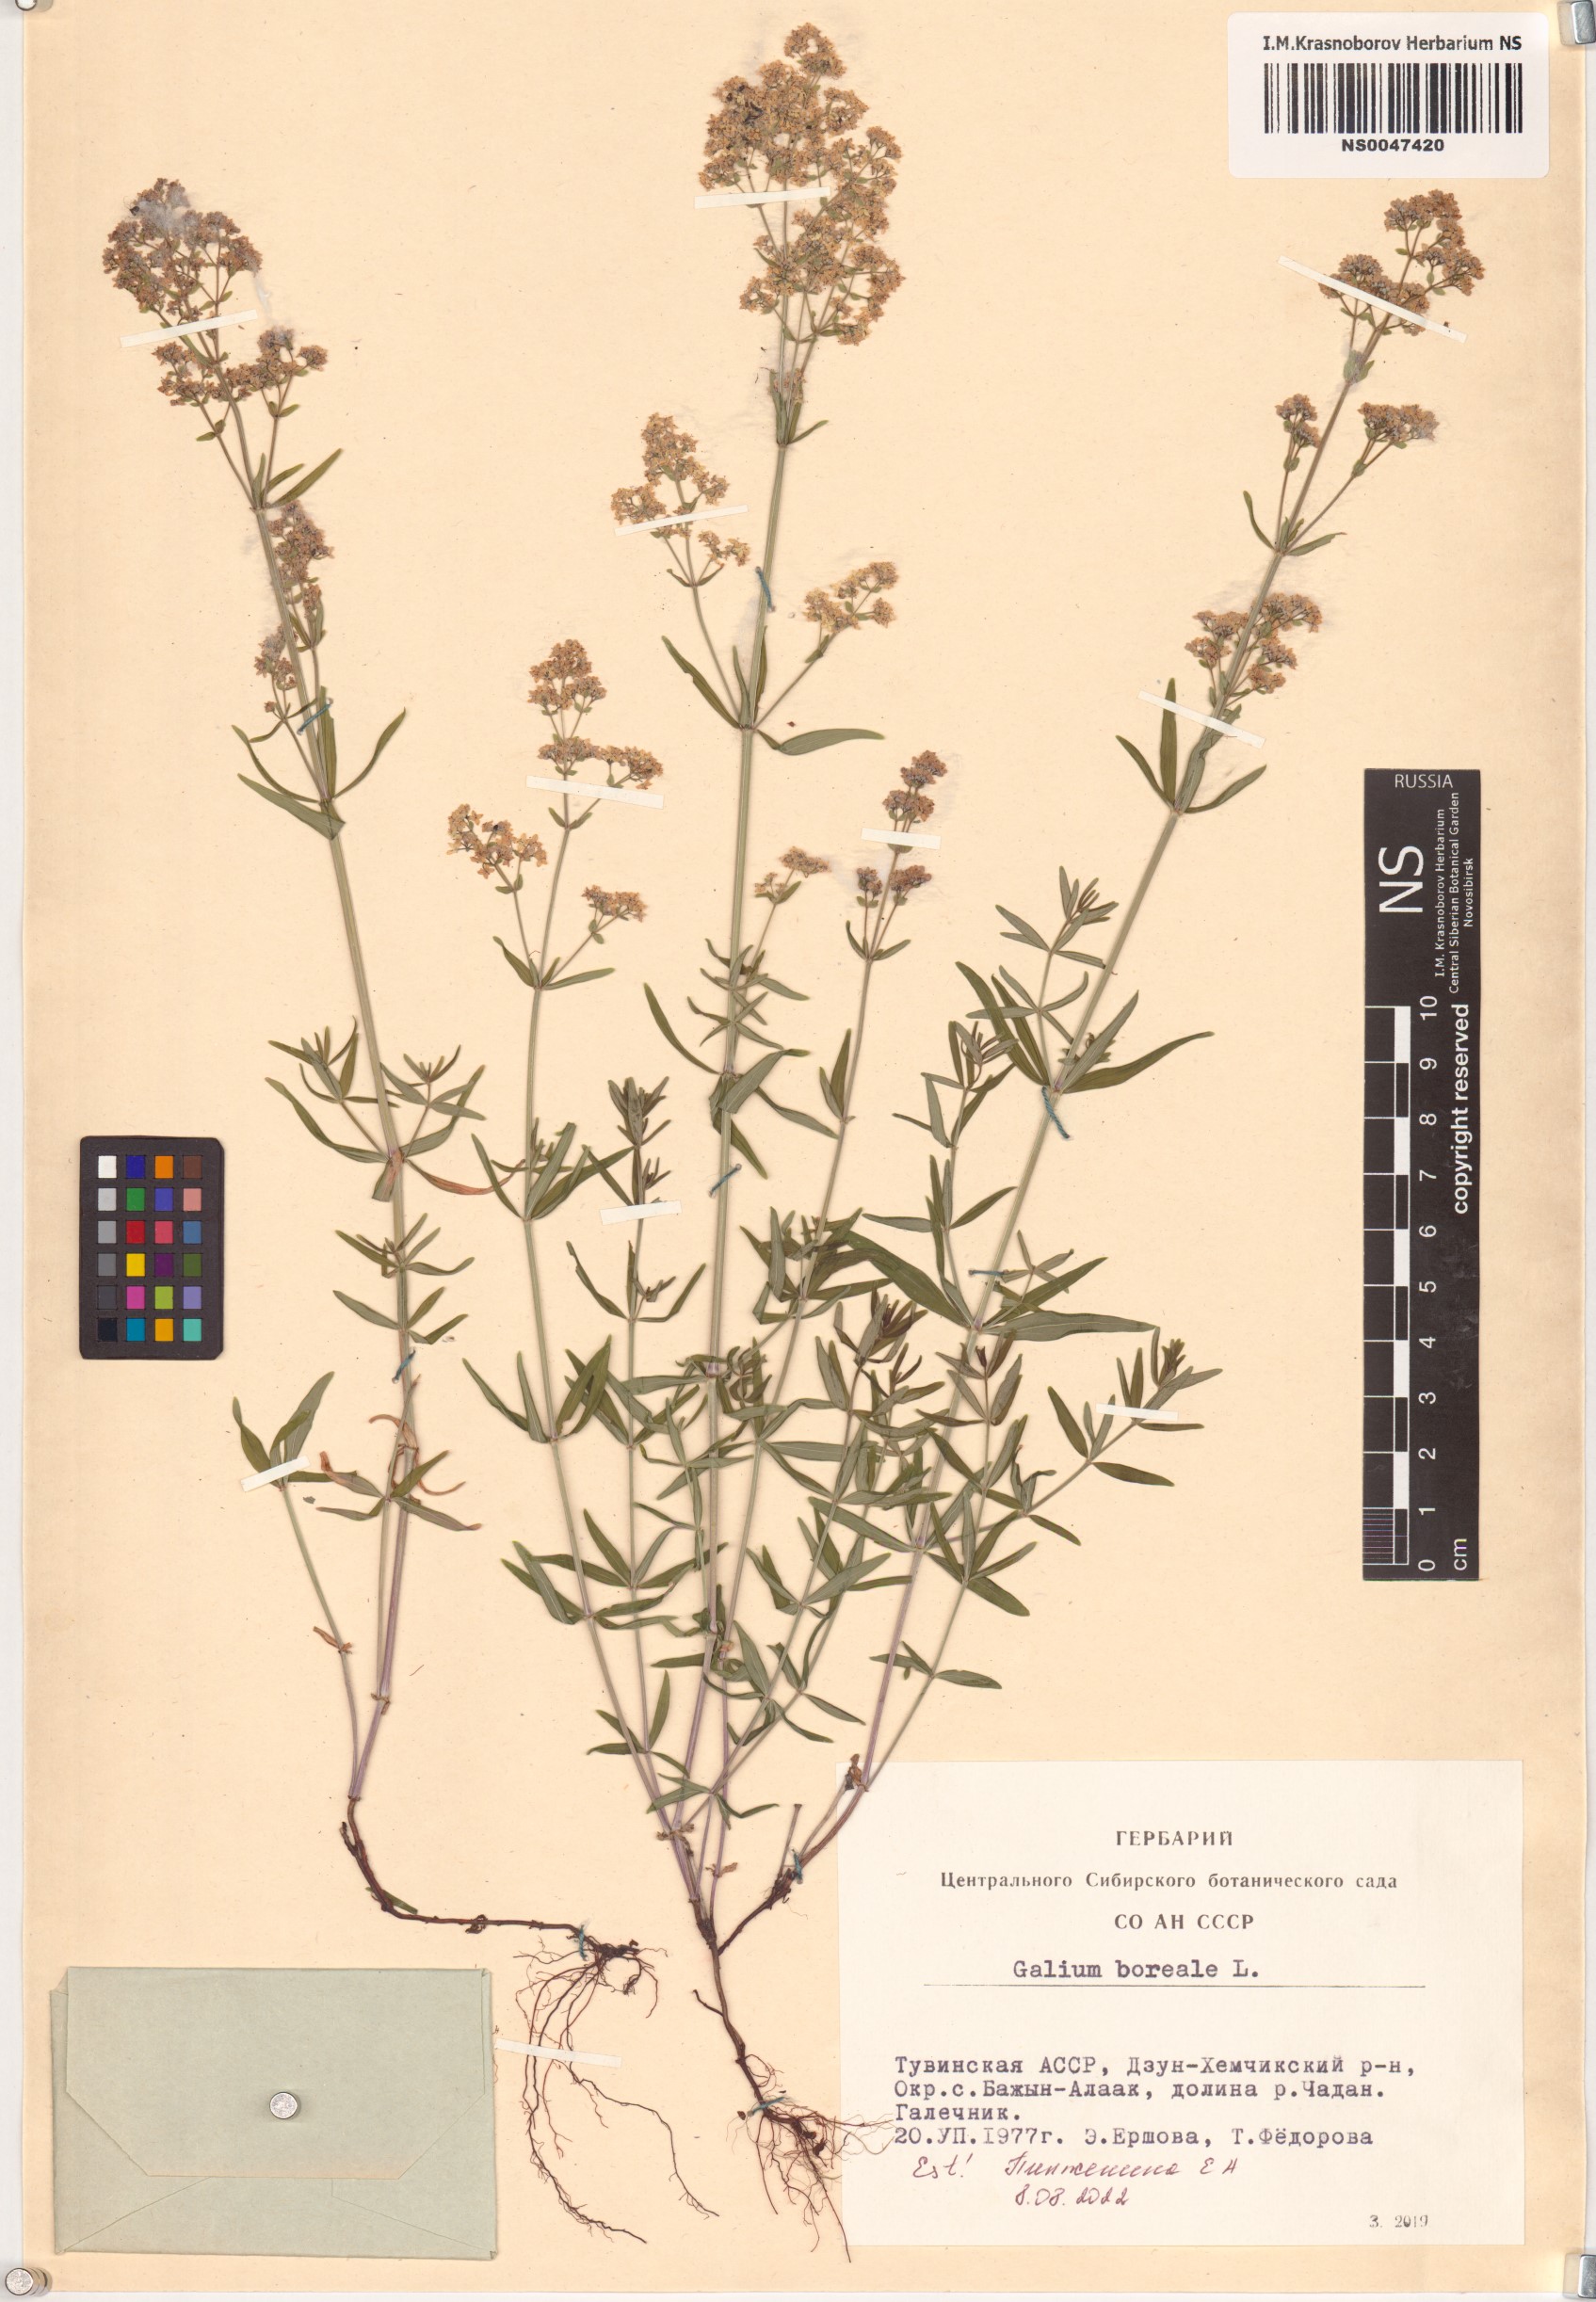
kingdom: Plantae
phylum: Tracheophyta
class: Magnoliopsida
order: Gentianales
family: Rubiaceae
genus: Galium
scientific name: Galium boreale
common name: Northern bedstraw
